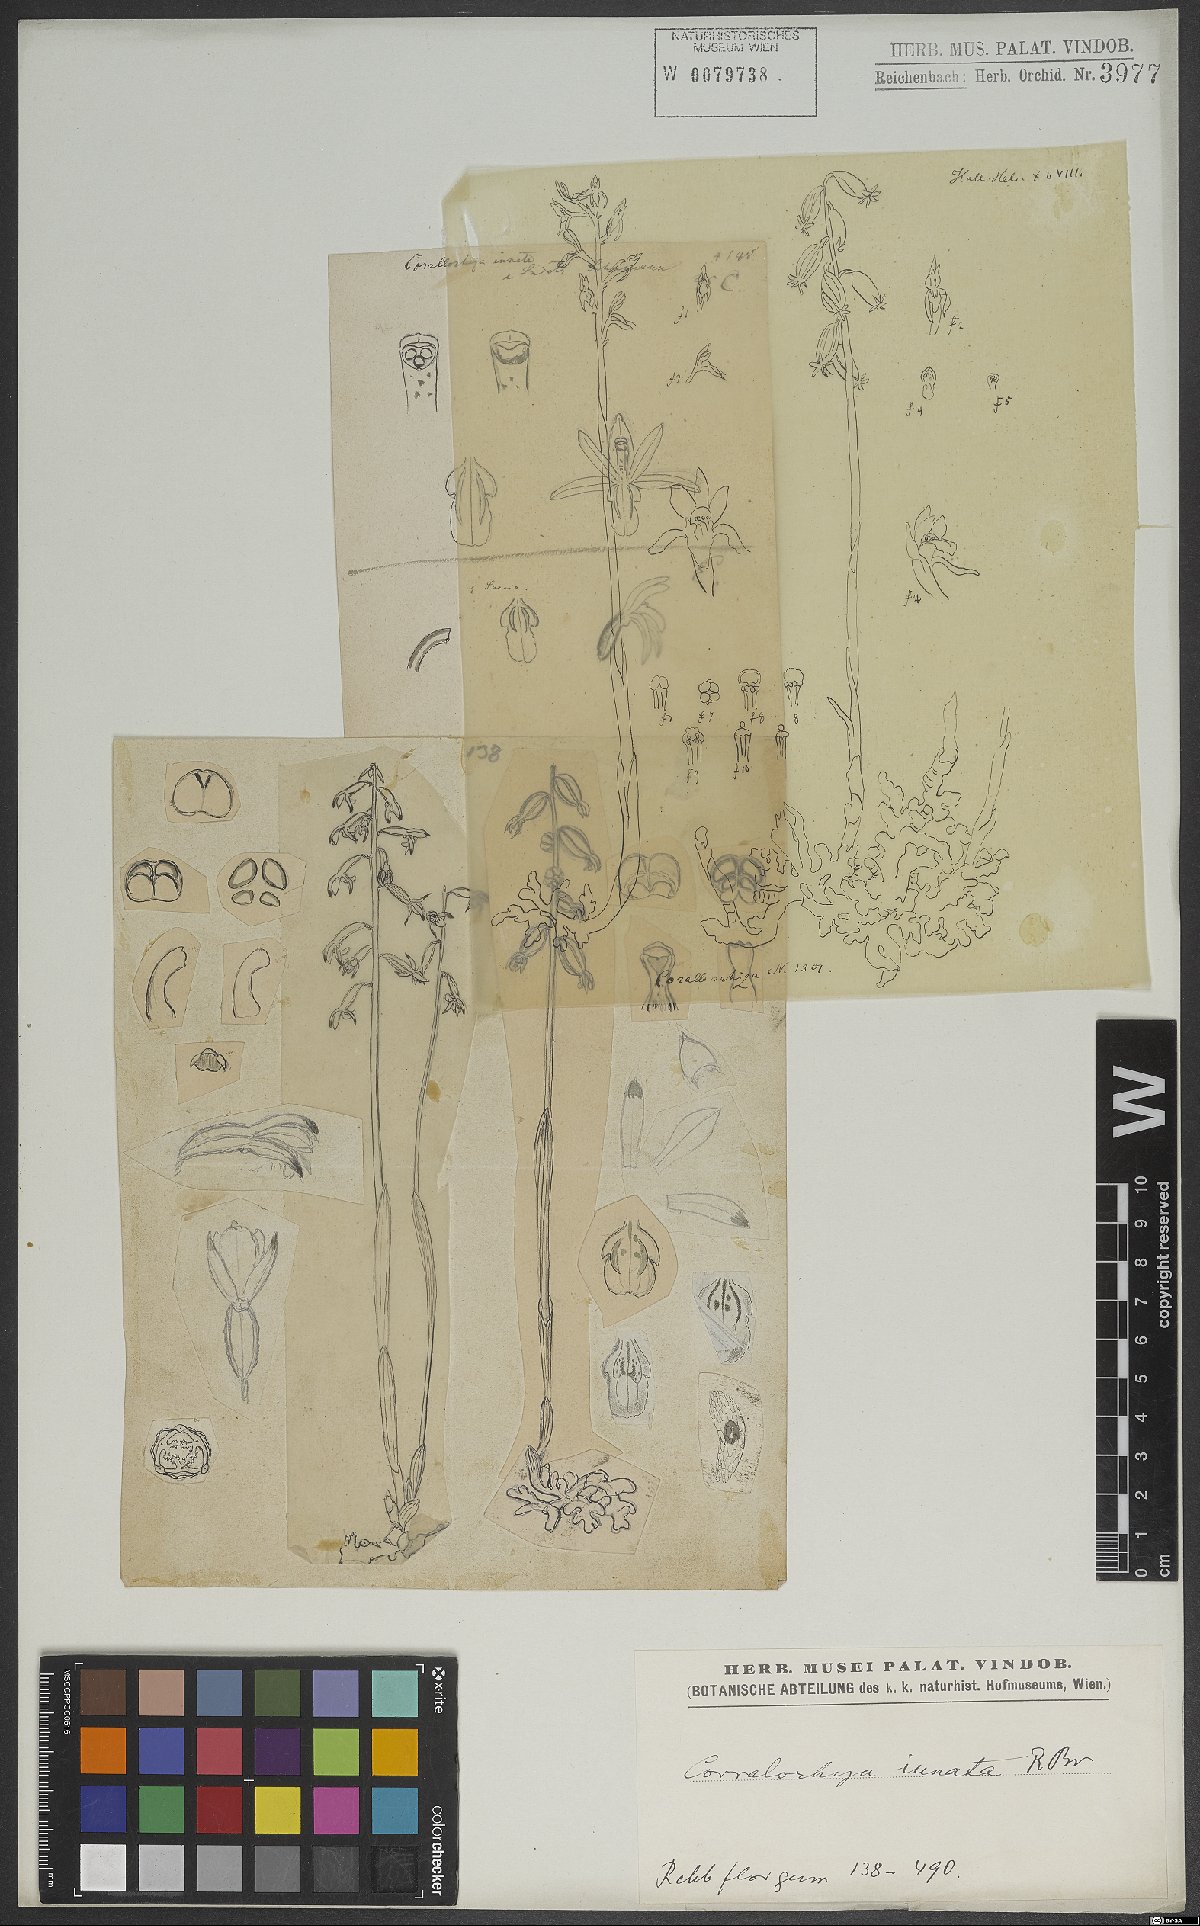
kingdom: Plantae
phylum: Tracheophyta
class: Liliopsida
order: Asparagales
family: Orchidaceae
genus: Corallorhiza
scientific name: Corallorhiza trifida
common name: Yellow coralroot
